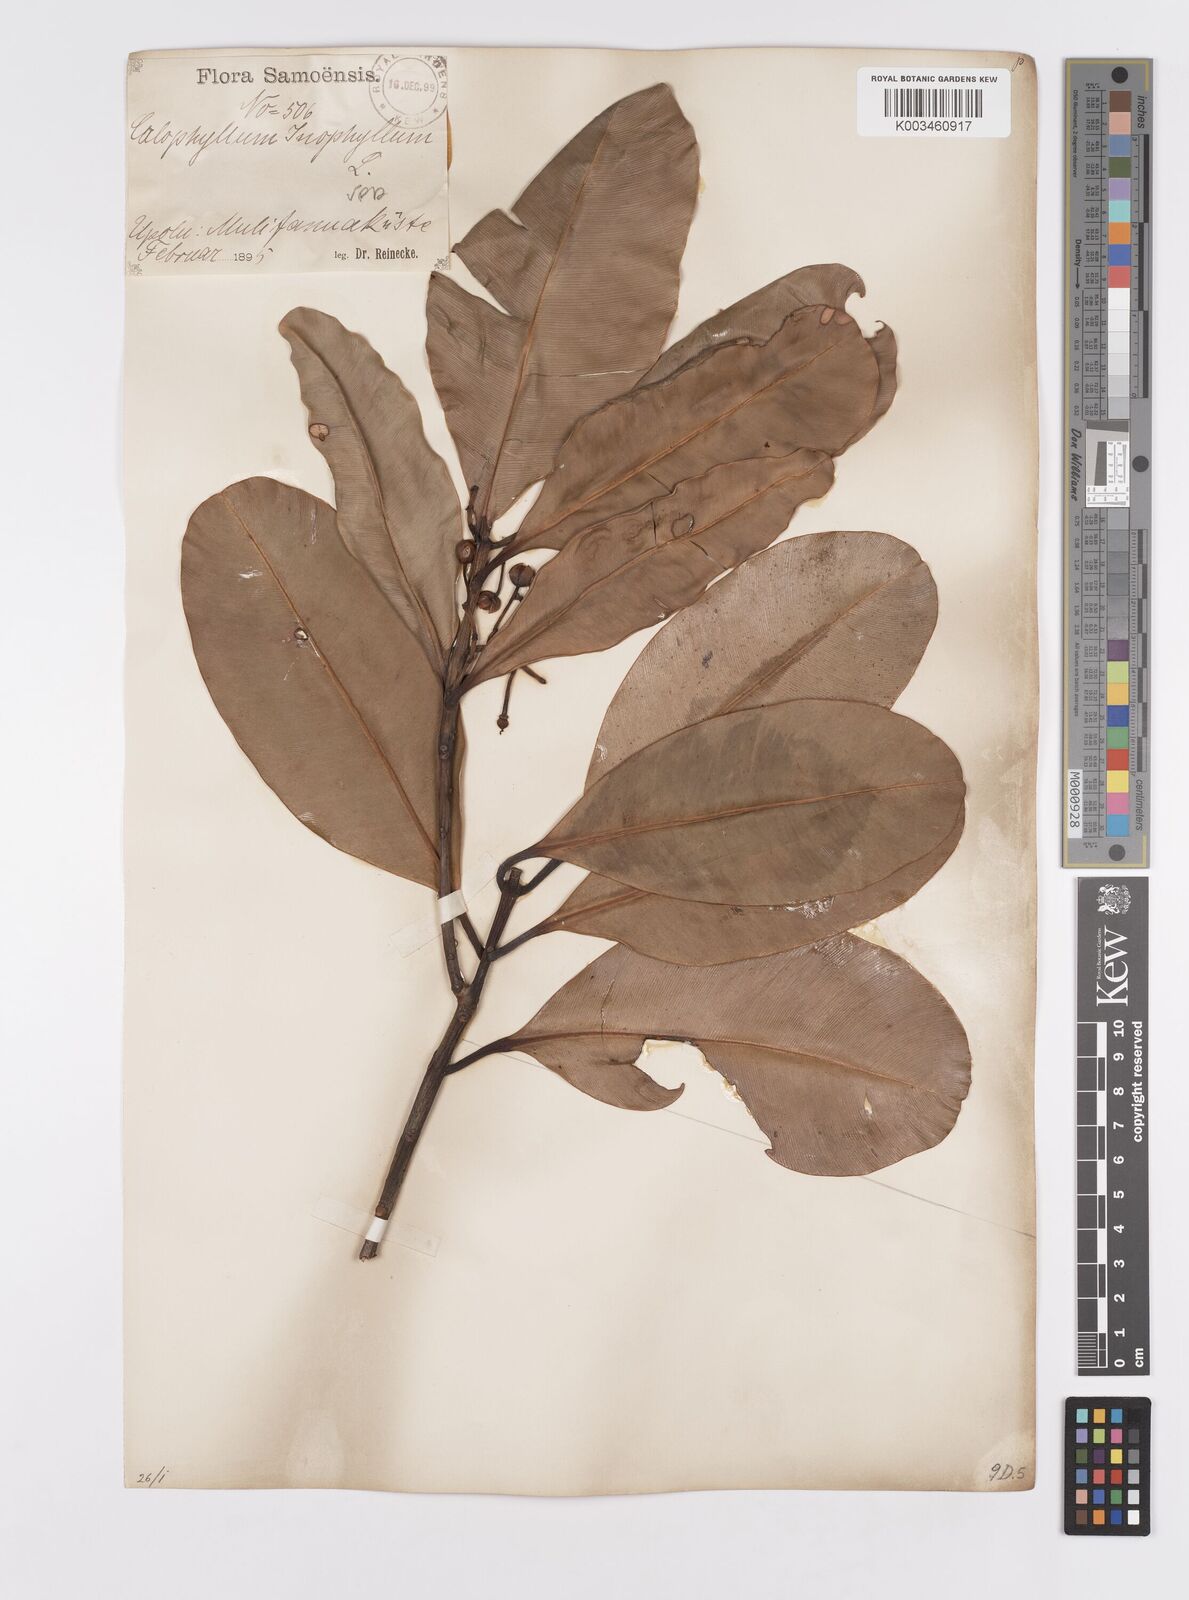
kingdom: Plantae
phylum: Tracheophyta
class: Magnoliopsida
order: Malpighiales
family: Calophyllaceae
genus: Calophyllum
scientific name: Calophyllum inophyllum
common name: Alexandrian laurel
